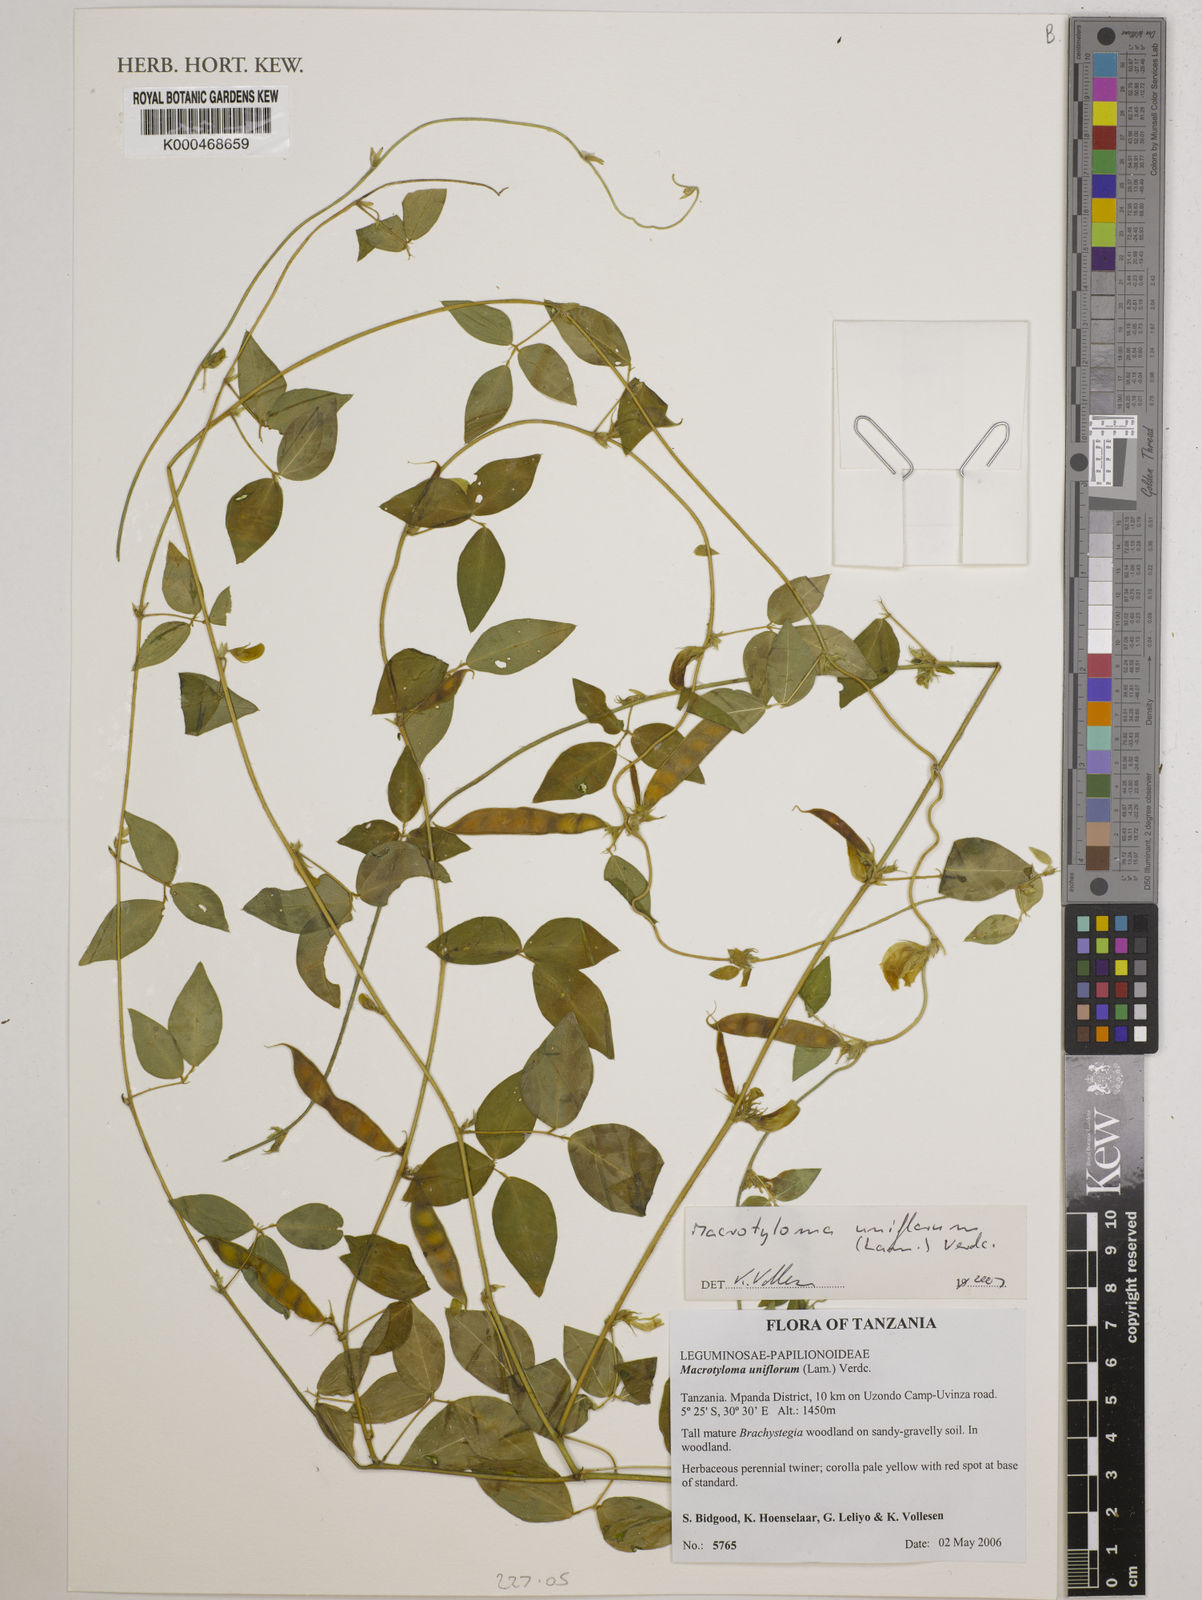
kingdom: Plantae
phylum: Tracheophyta
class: Magnoliopsida
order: Fabales
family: Fabaceae
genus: Macrotyloma
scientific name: Macrotyloma uniflorum
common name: Horse gram
